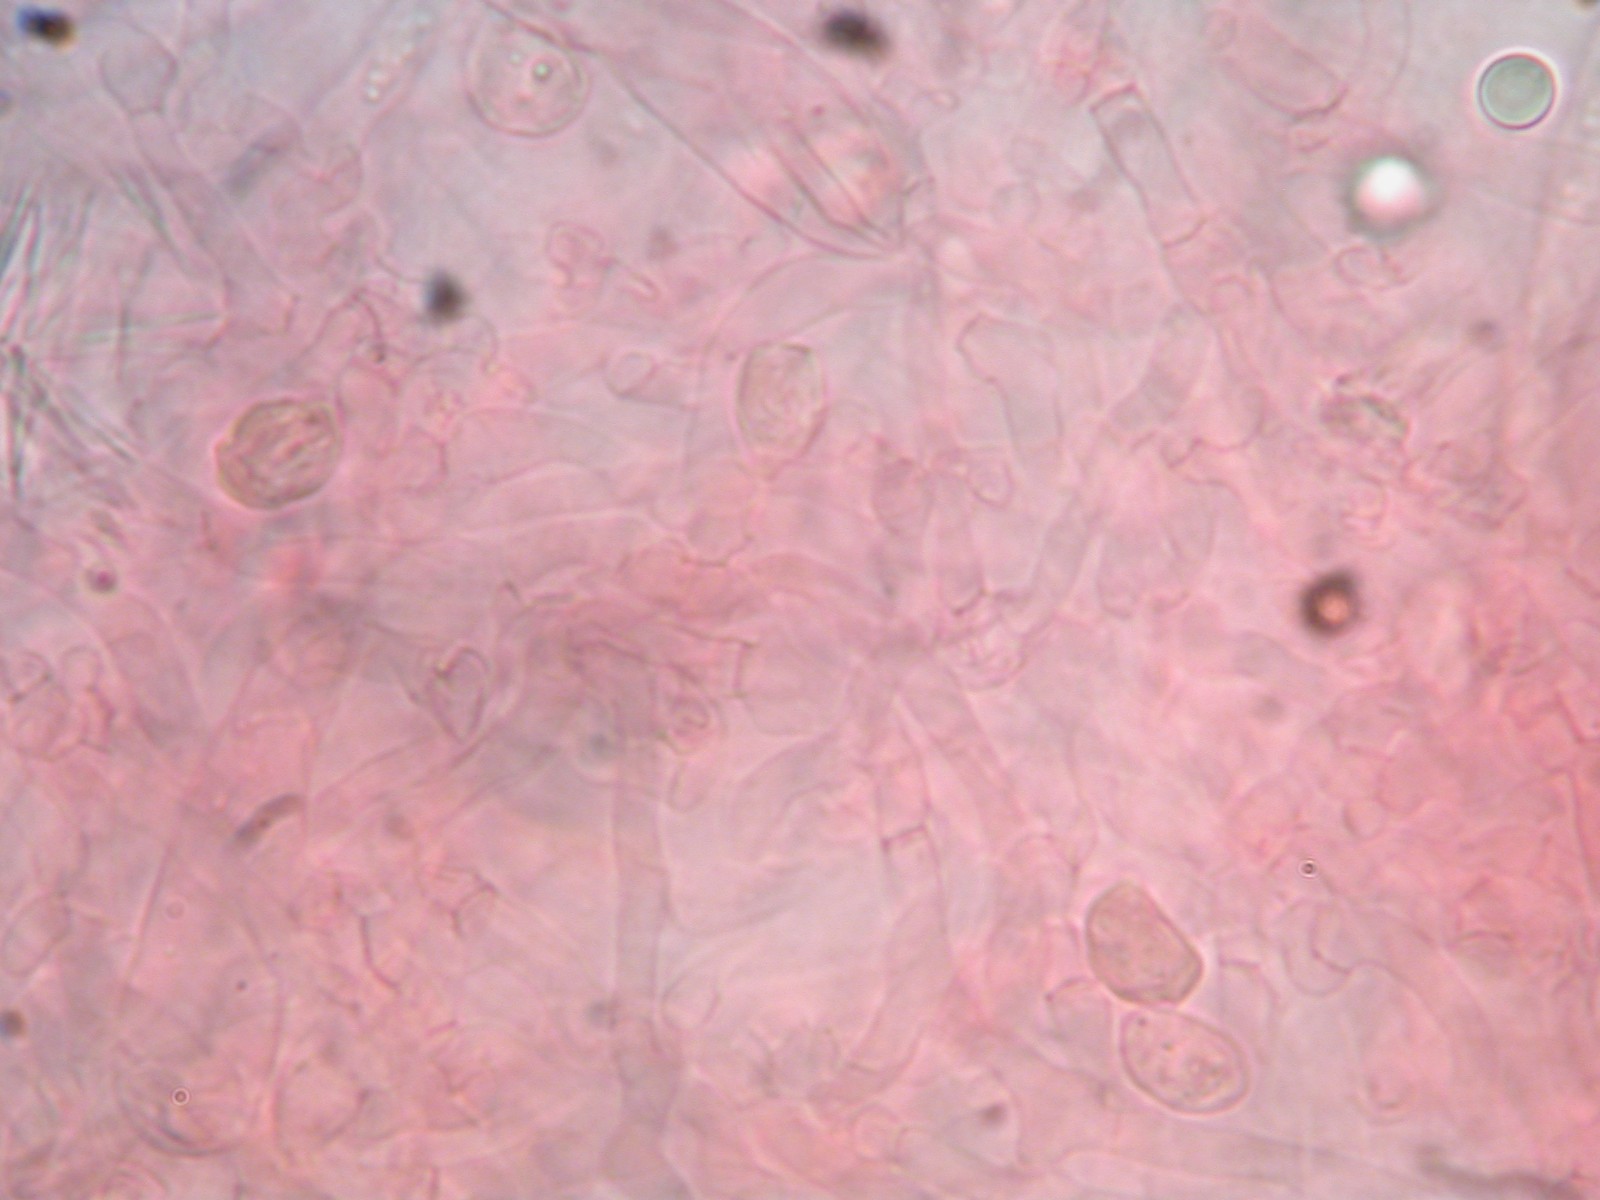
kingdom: Fungi
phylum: Basidiomycota
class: Agaricomycetes
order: Agaricales
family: Hygrophoraceae
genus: Neohygrocybe
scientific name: Neohygrocybe ovina
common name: rødmende vokshat
